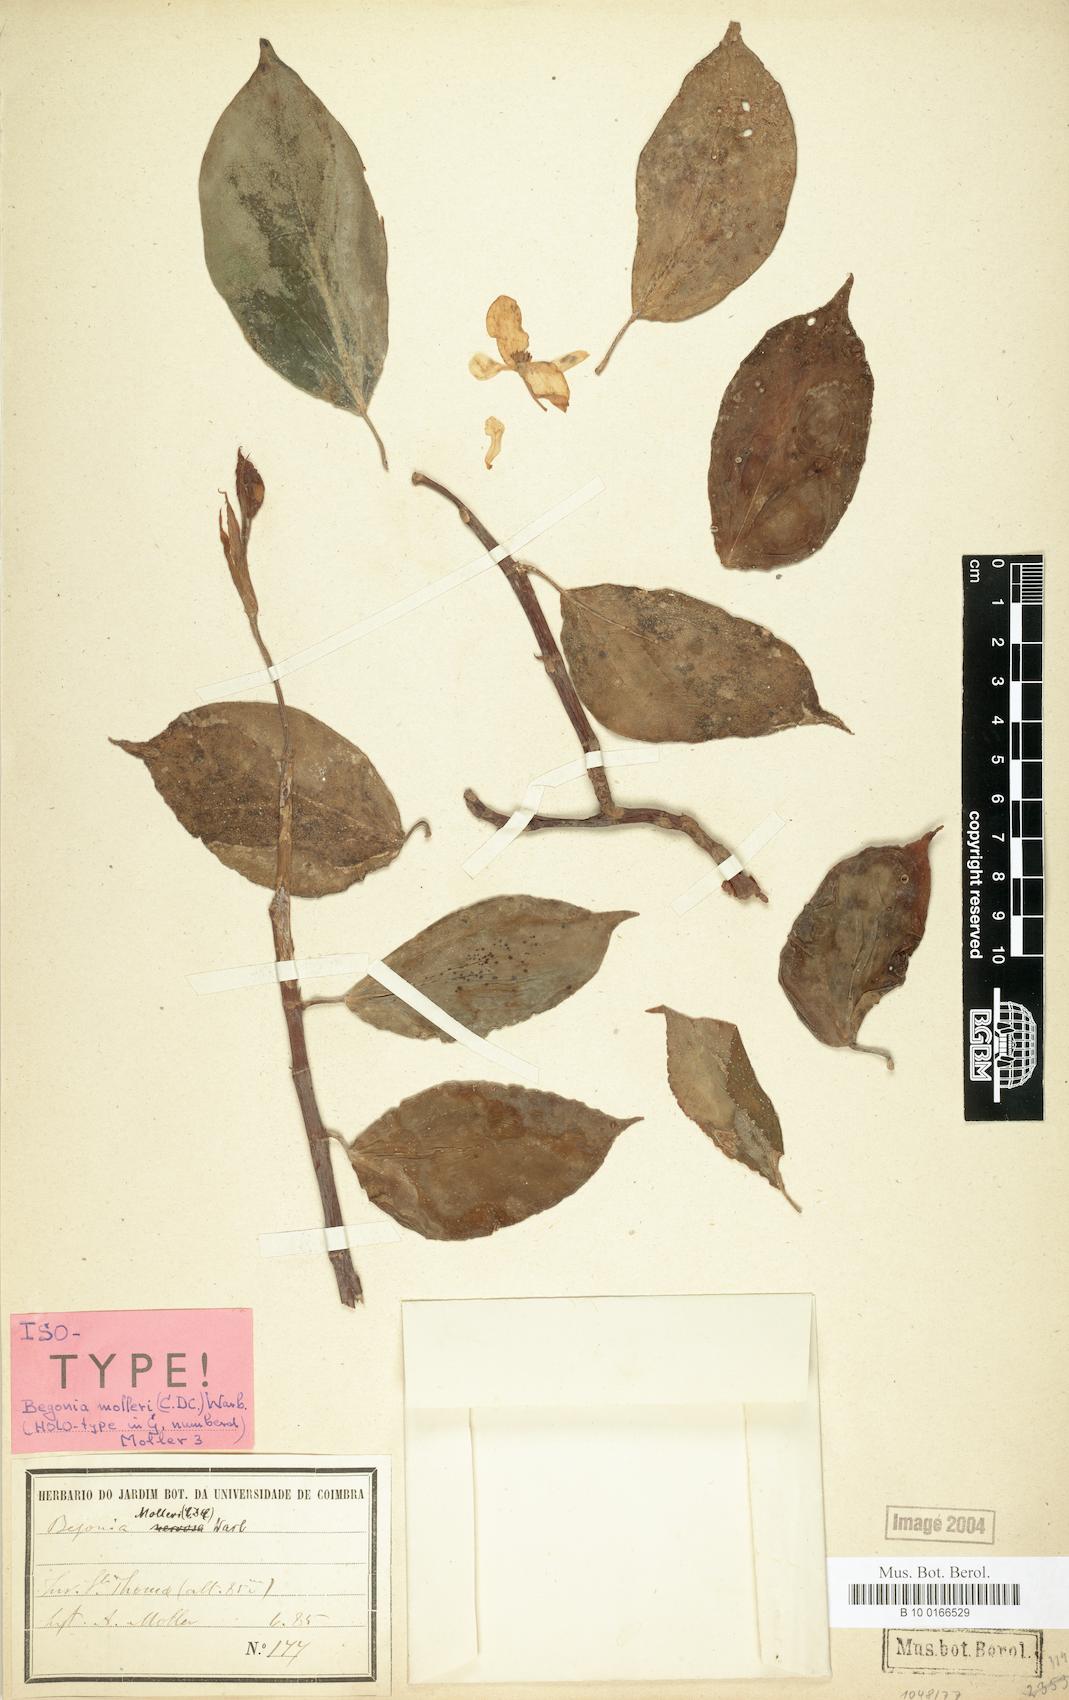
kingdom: Plantae
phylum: Tracheophyta
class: Magnoliopsida
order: Cucurbitales
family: Begoniaceae
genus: Begonia
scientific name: Begonia molleri
